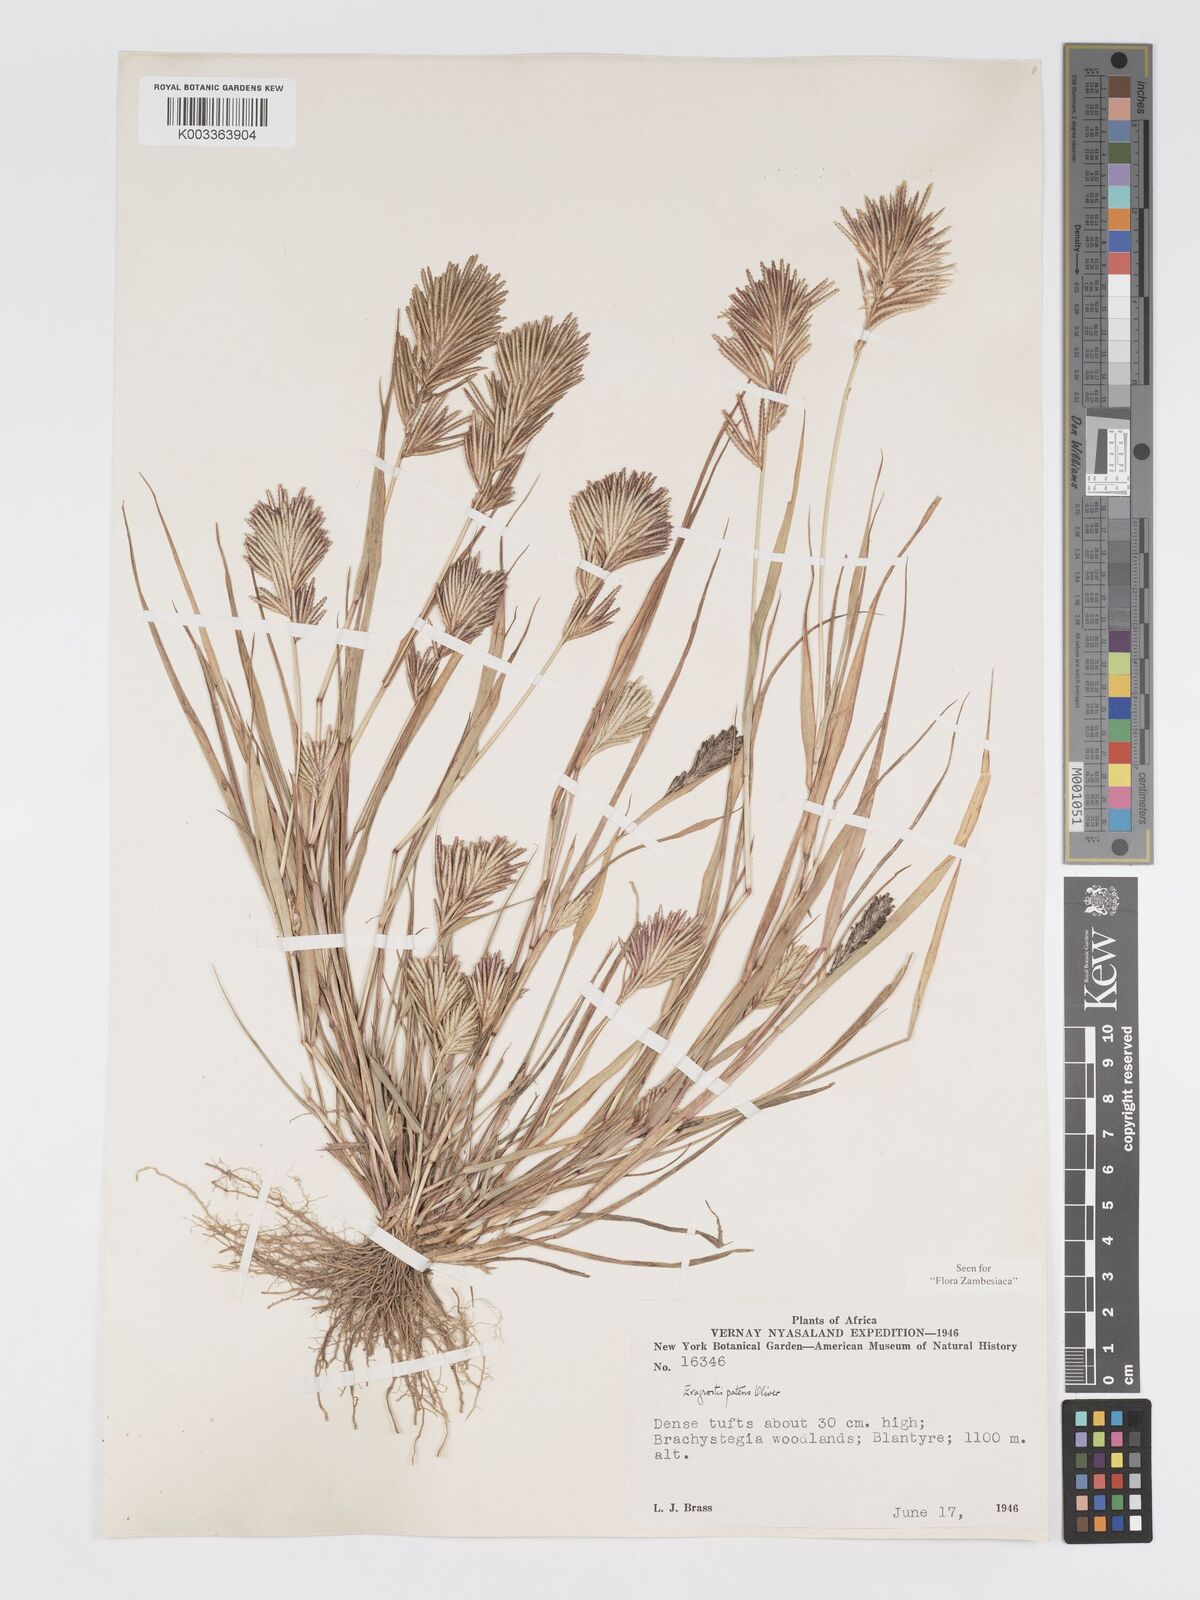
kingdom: Plantae
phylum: Tracheophyta
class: Liliopsida
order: Poales
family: Poaceae
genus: Eragrostis
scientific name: Eragrostis patens
